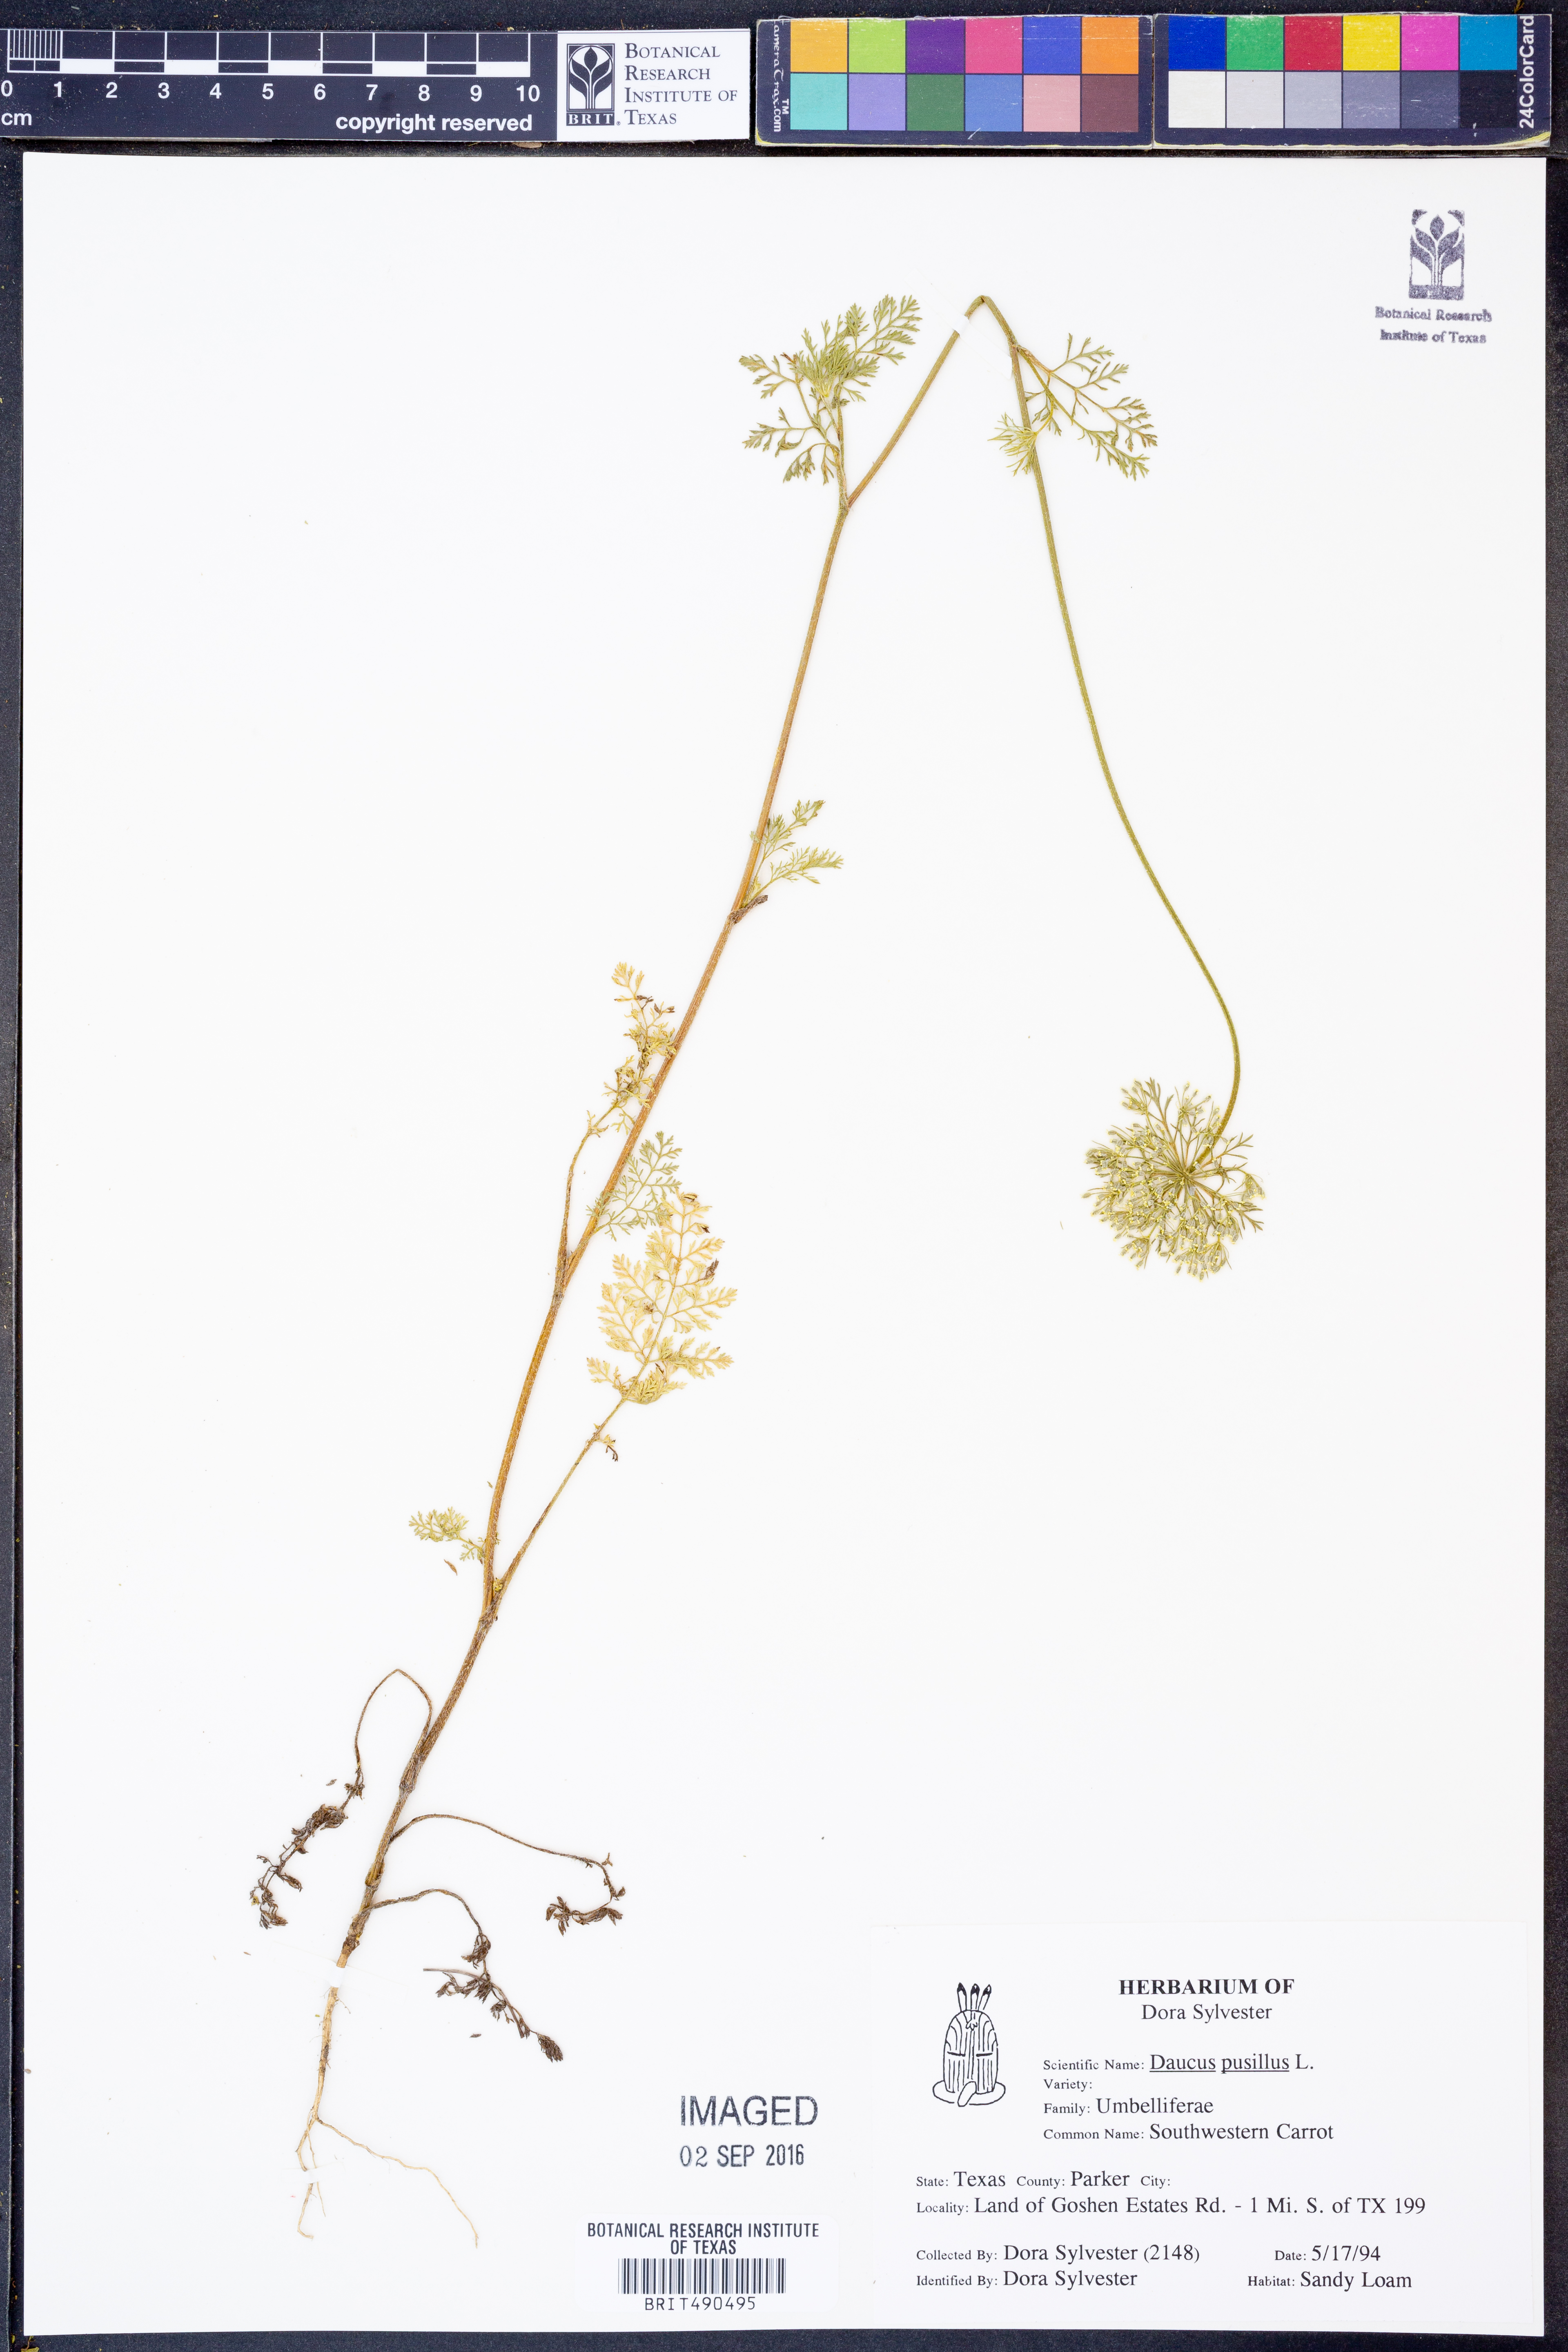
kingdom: Plantae
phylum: Tracheophyta
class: Magnoliopsida
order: Apiales
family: Apiaceae
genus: Daucus
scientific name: Daucus pusillus
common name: Southwest wild carrot
